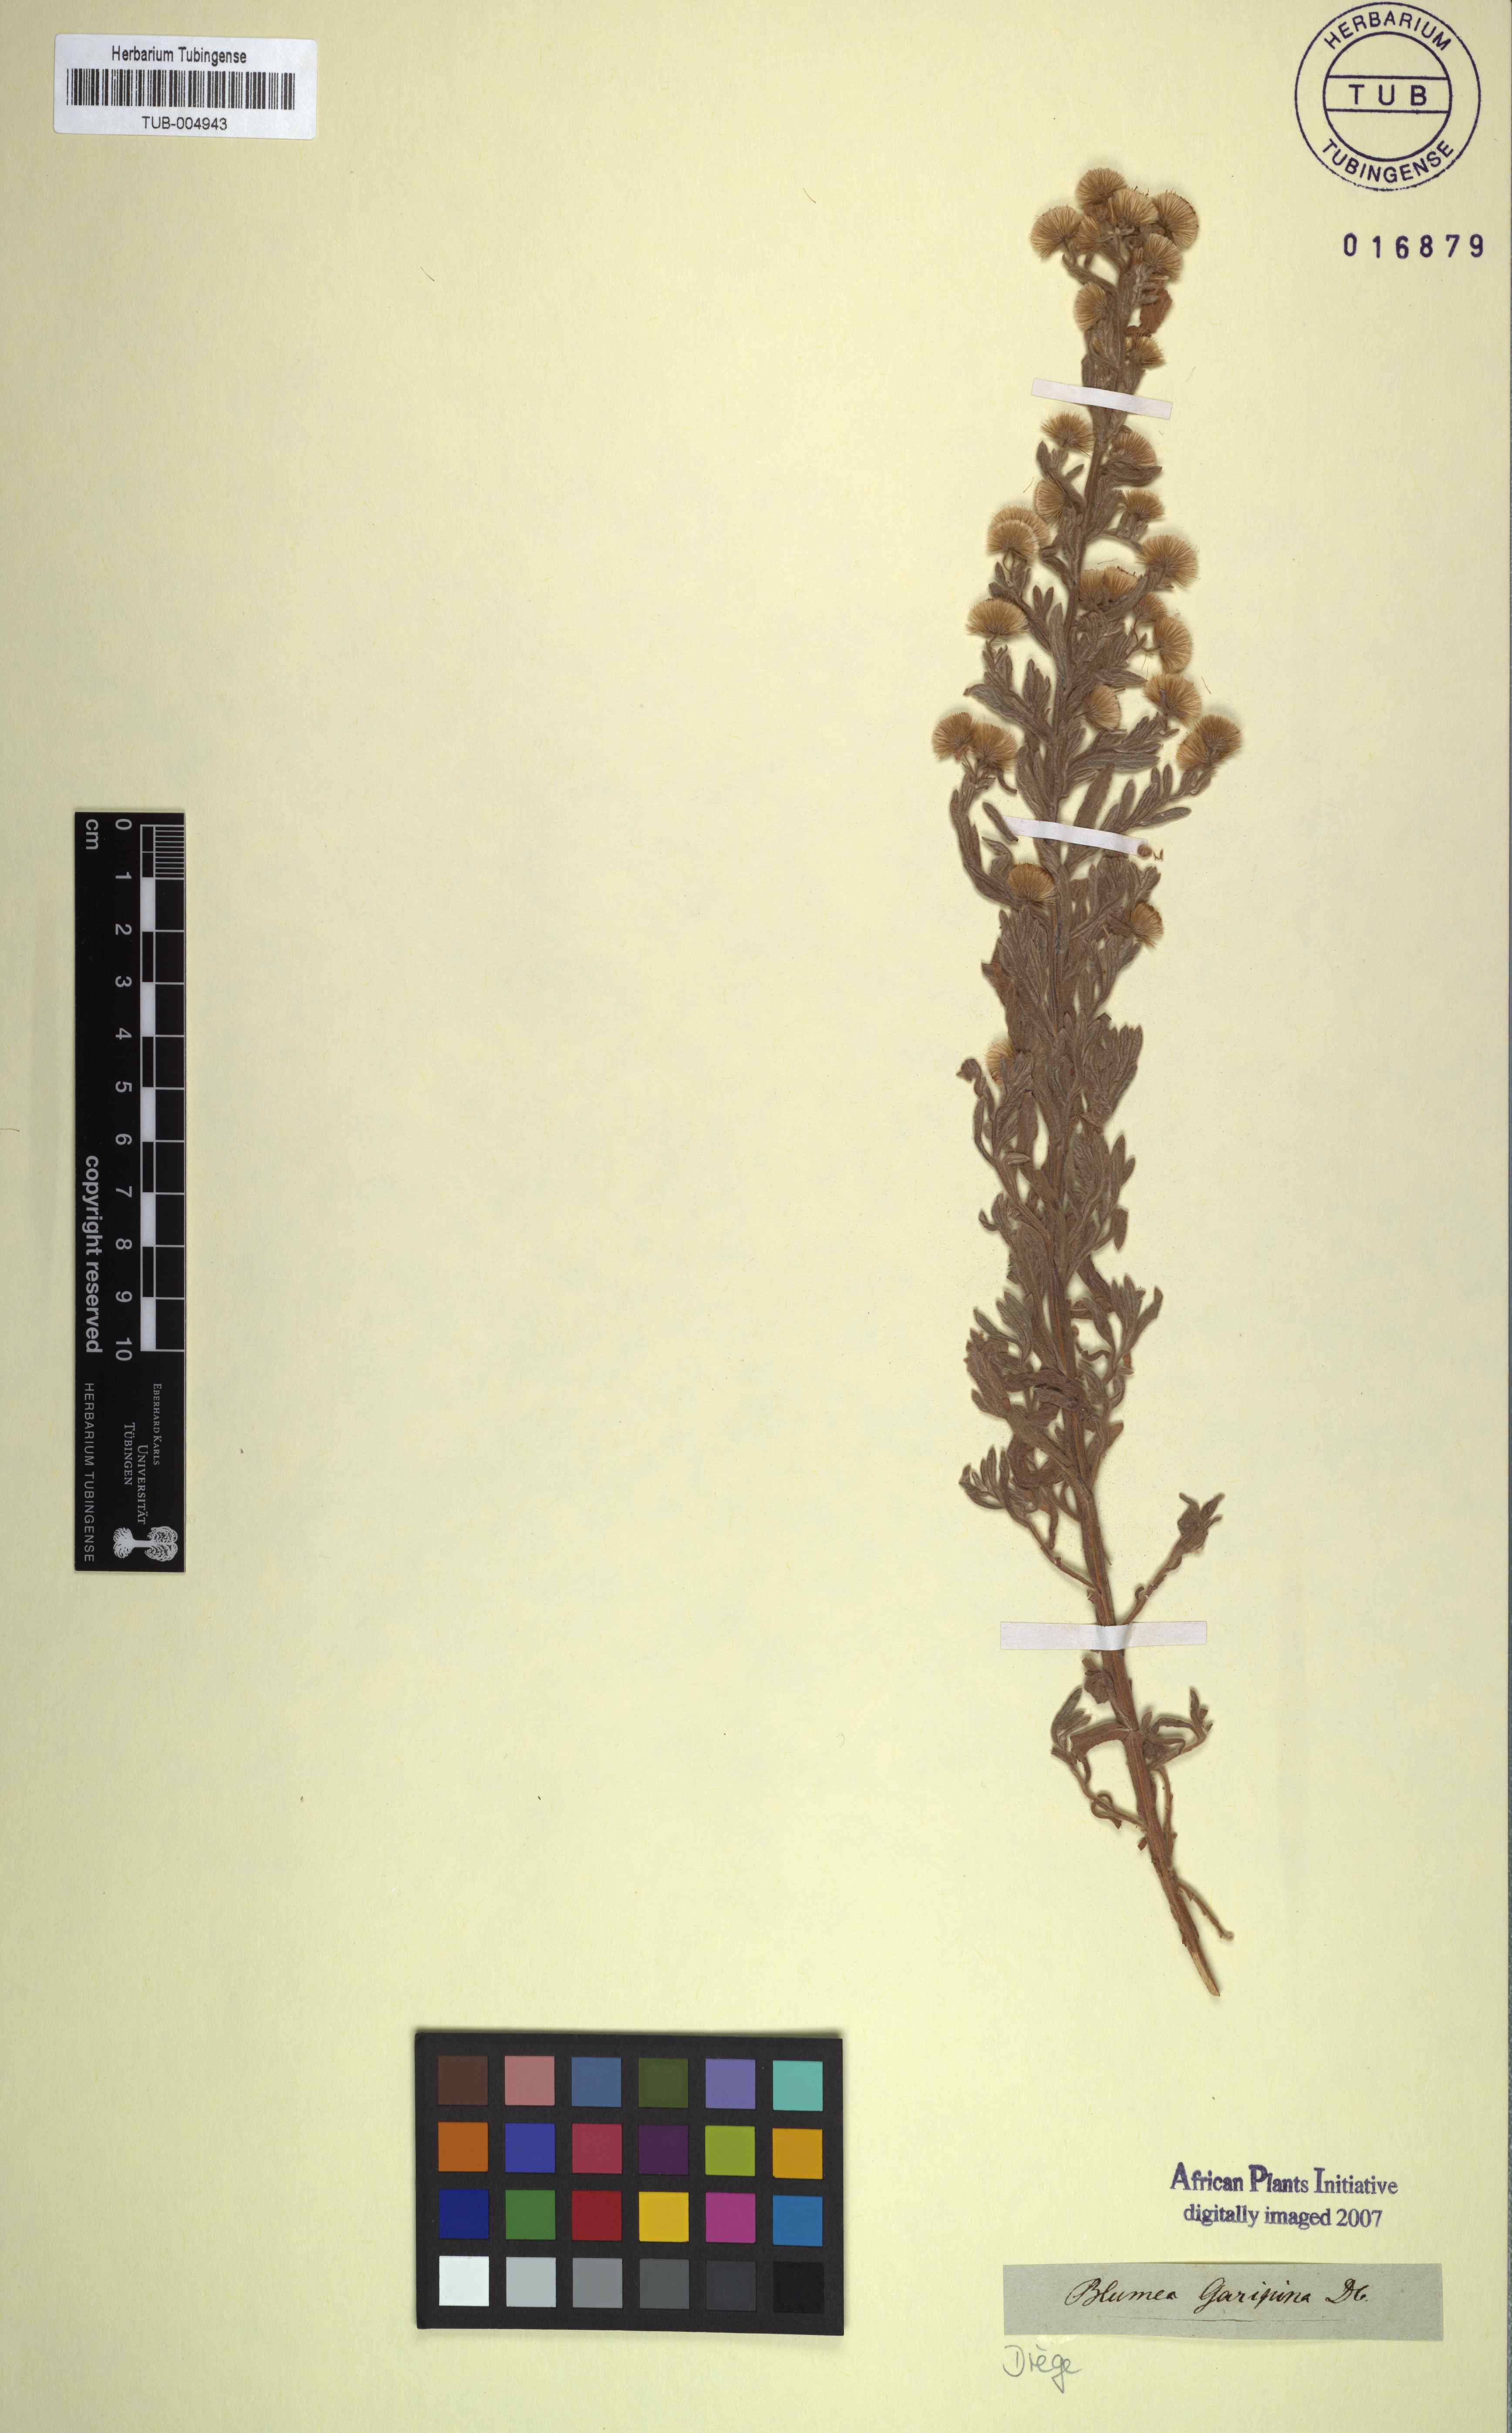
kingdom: Plantae
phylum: Tracheophyta
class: Magnoliopsida
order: Asterales
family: Asteraceae
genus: Galgera
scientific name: Galgera decurrens
